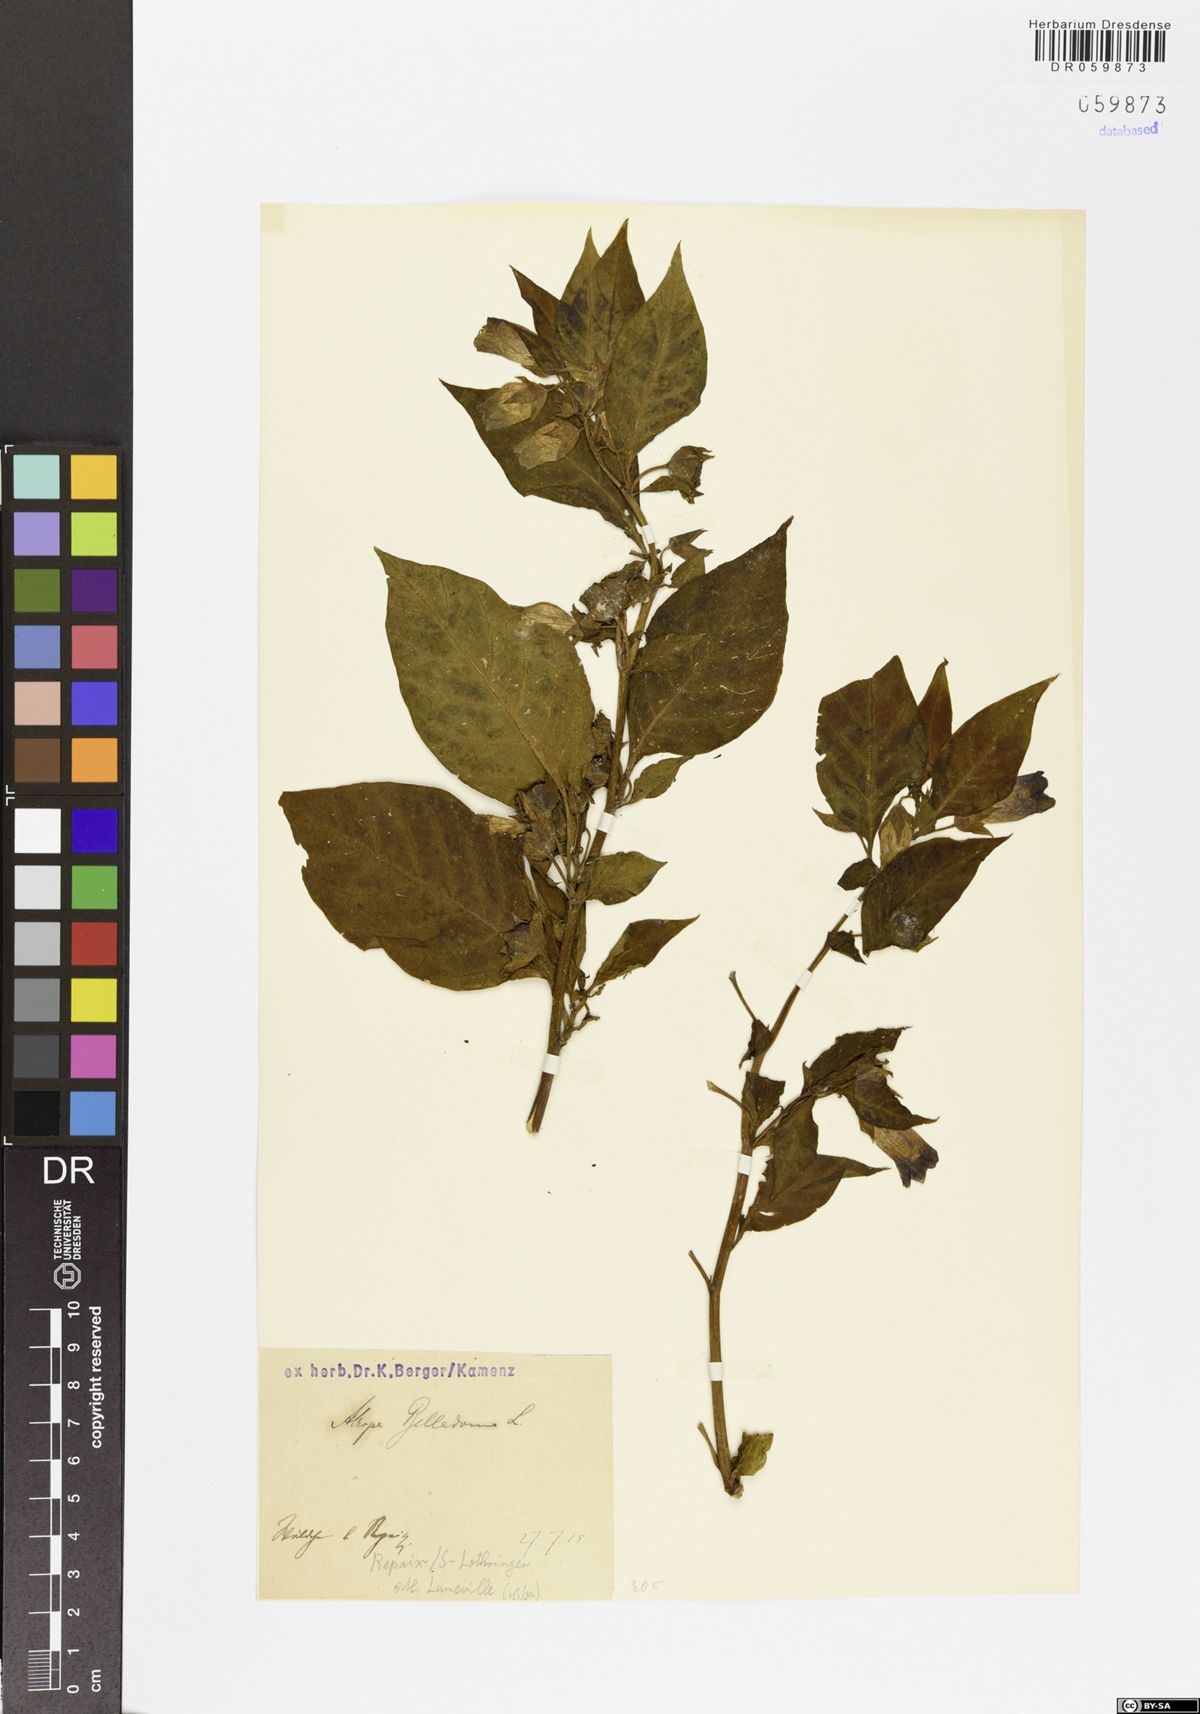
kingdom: Plantae
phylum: Tracheophyta
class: Magnoliopsida
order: Solanales
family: Solanaceae
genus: Atropa
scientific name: Atropa belladonna
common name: Deadly nightshade
